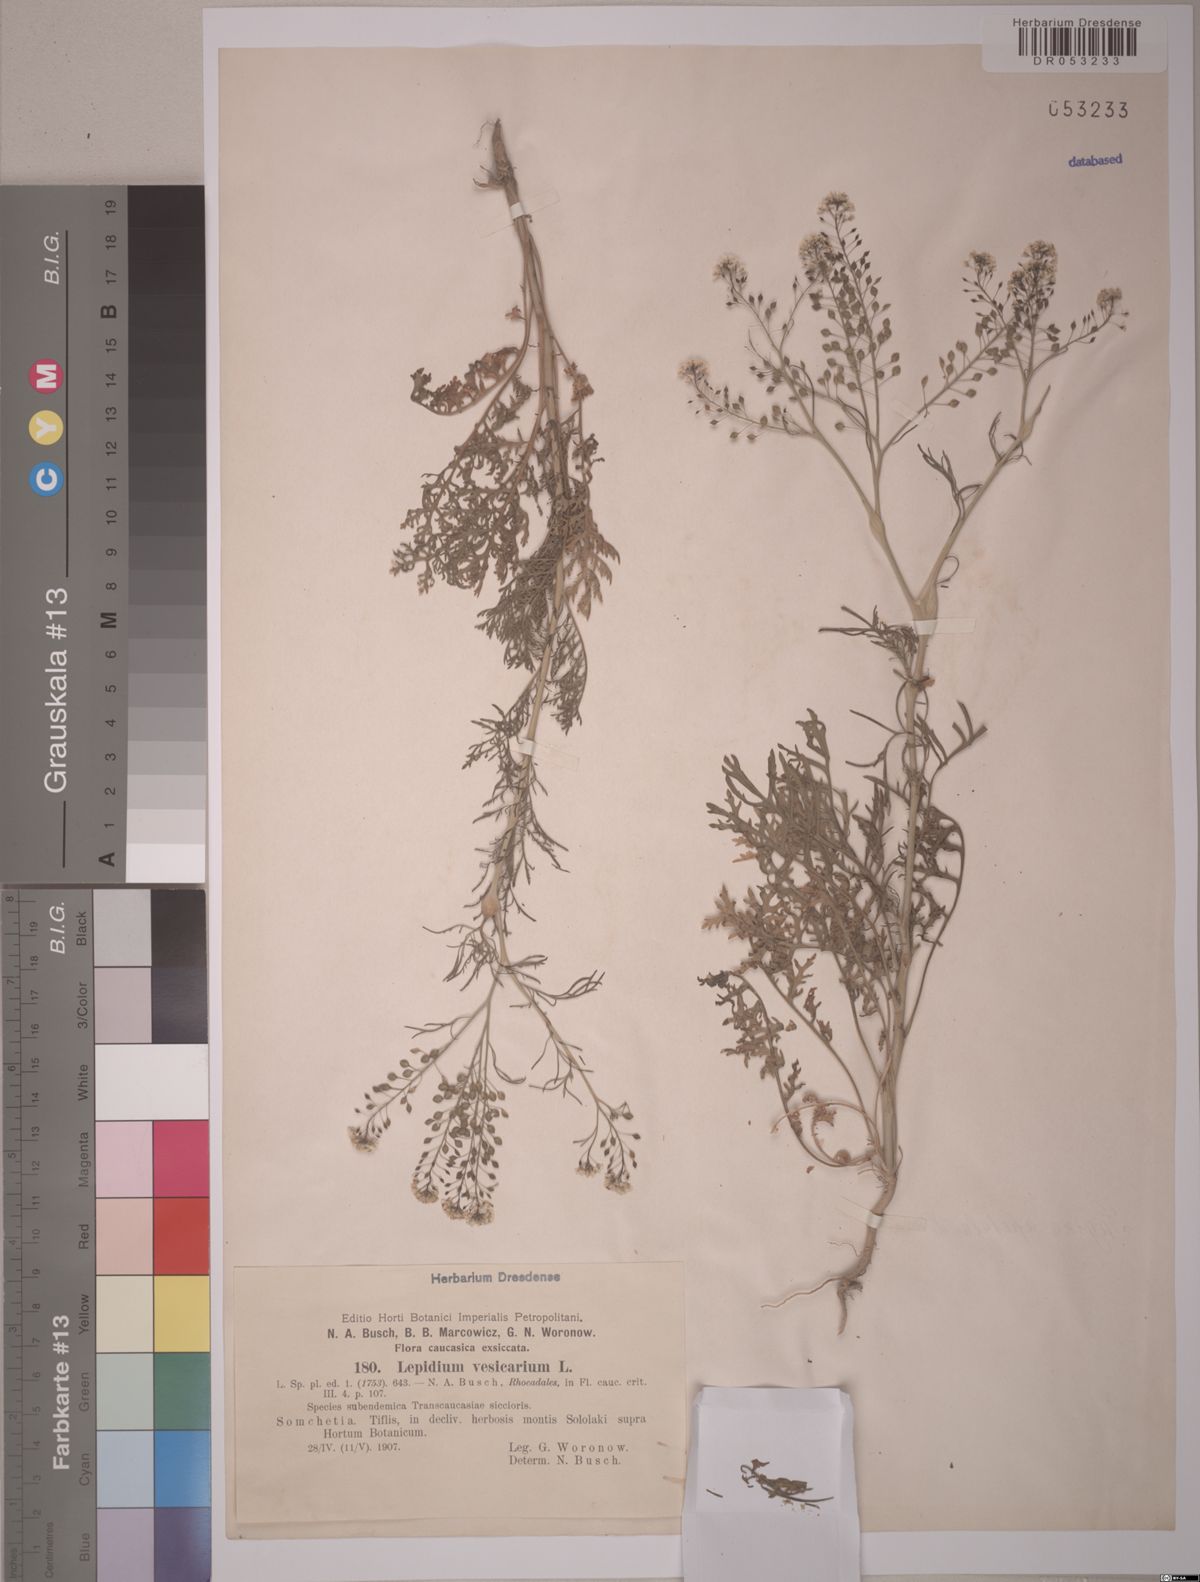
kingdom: Plantae
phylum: Tracheophyta
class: Magnoliopsida
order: Brassicales
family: Brassicaceae
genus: Lepidium
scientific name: Lepidium vesicarium
